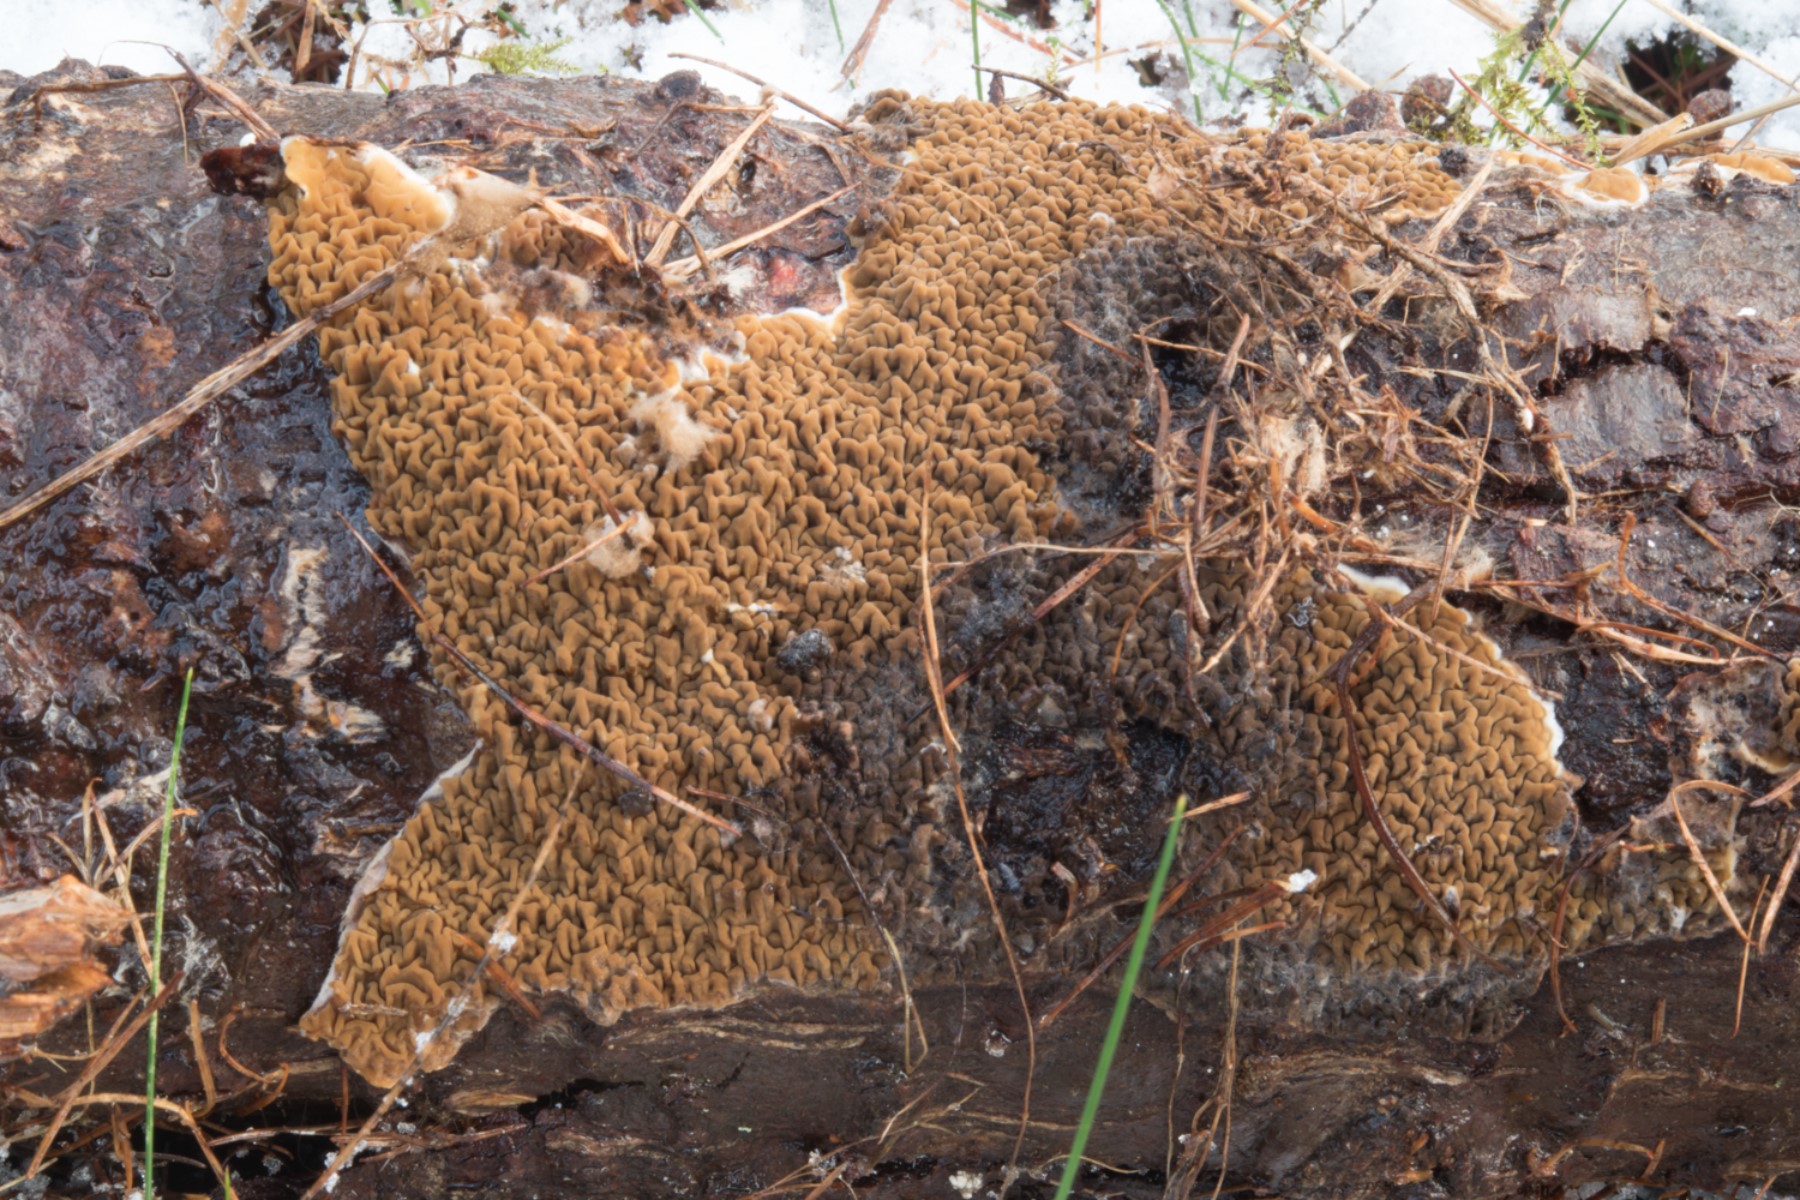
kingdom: Fungi
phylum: Basidiomycota
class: Agaricomycetes
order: Boletales
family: Serpulaceae
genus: Serpula
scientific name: Serpula himantioides
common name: tyndkødet hussvamp
